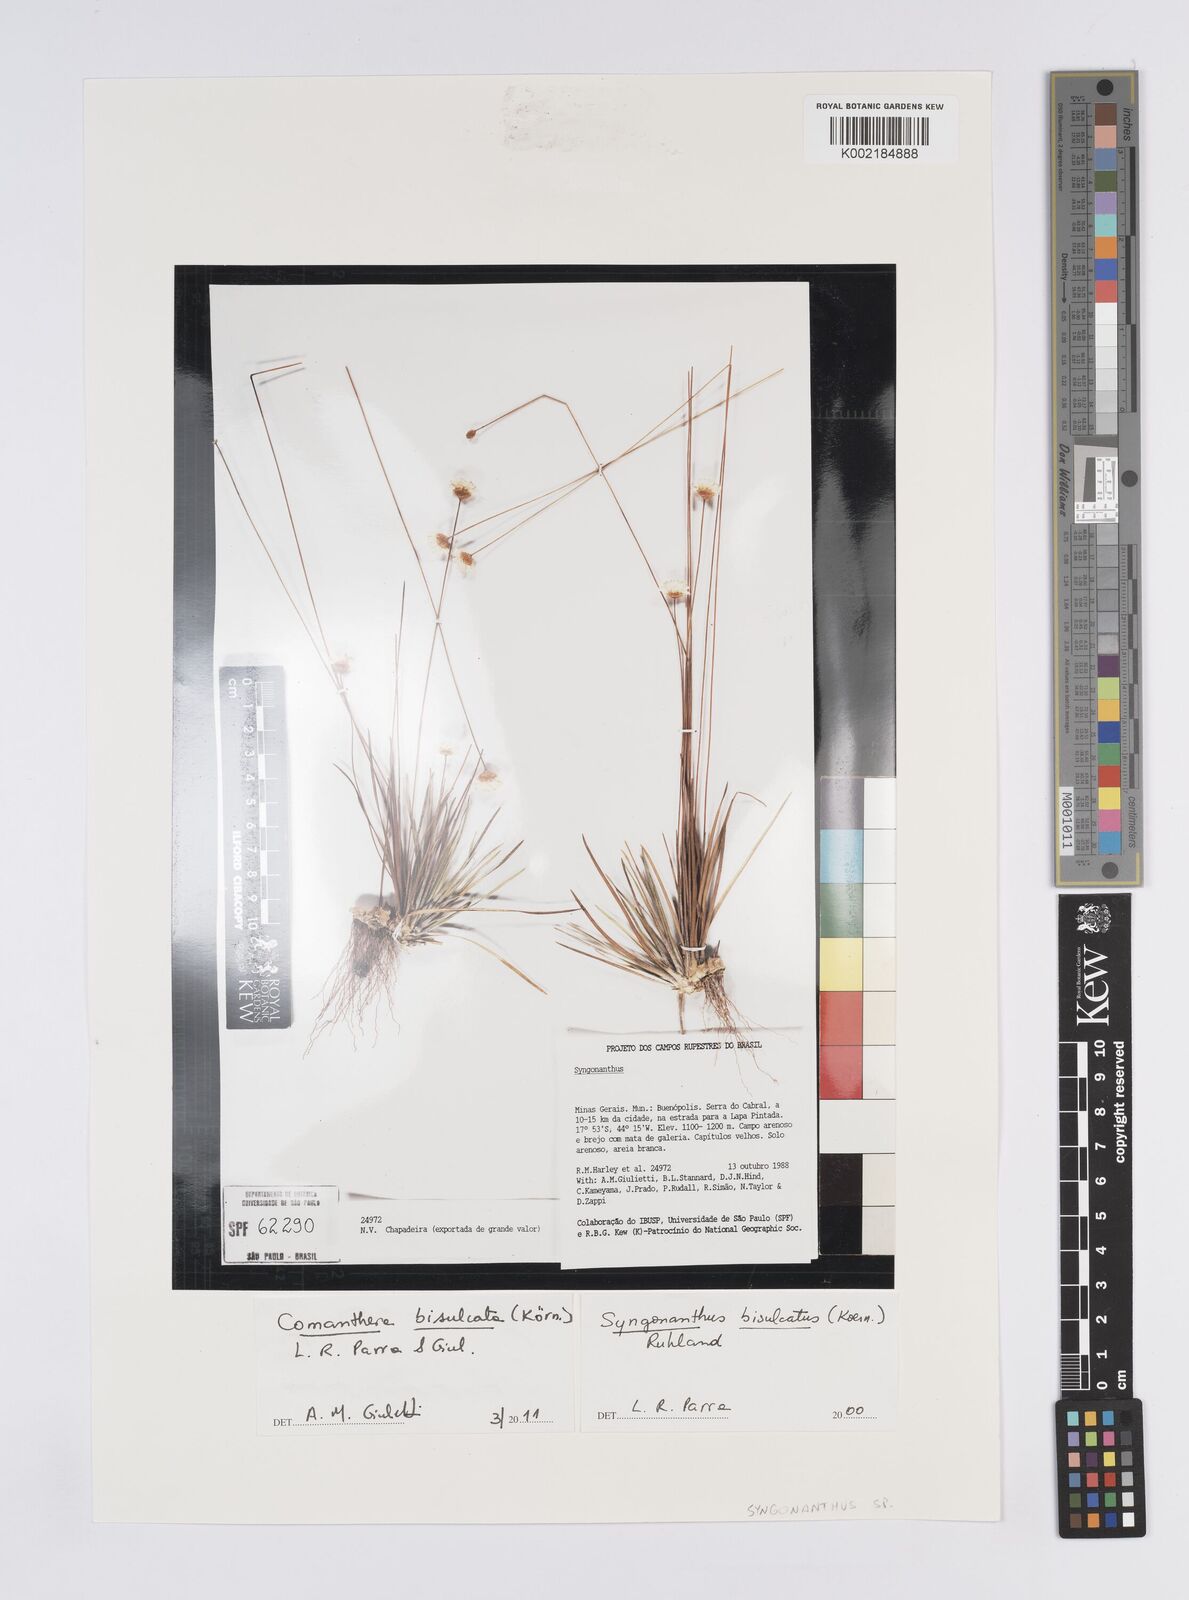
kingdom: Plantae
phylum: Tracheophyta
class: Liliopsida
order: Poales
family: Eriocaulaceae
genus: Comanthera
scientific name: Comanthera bisulcata
